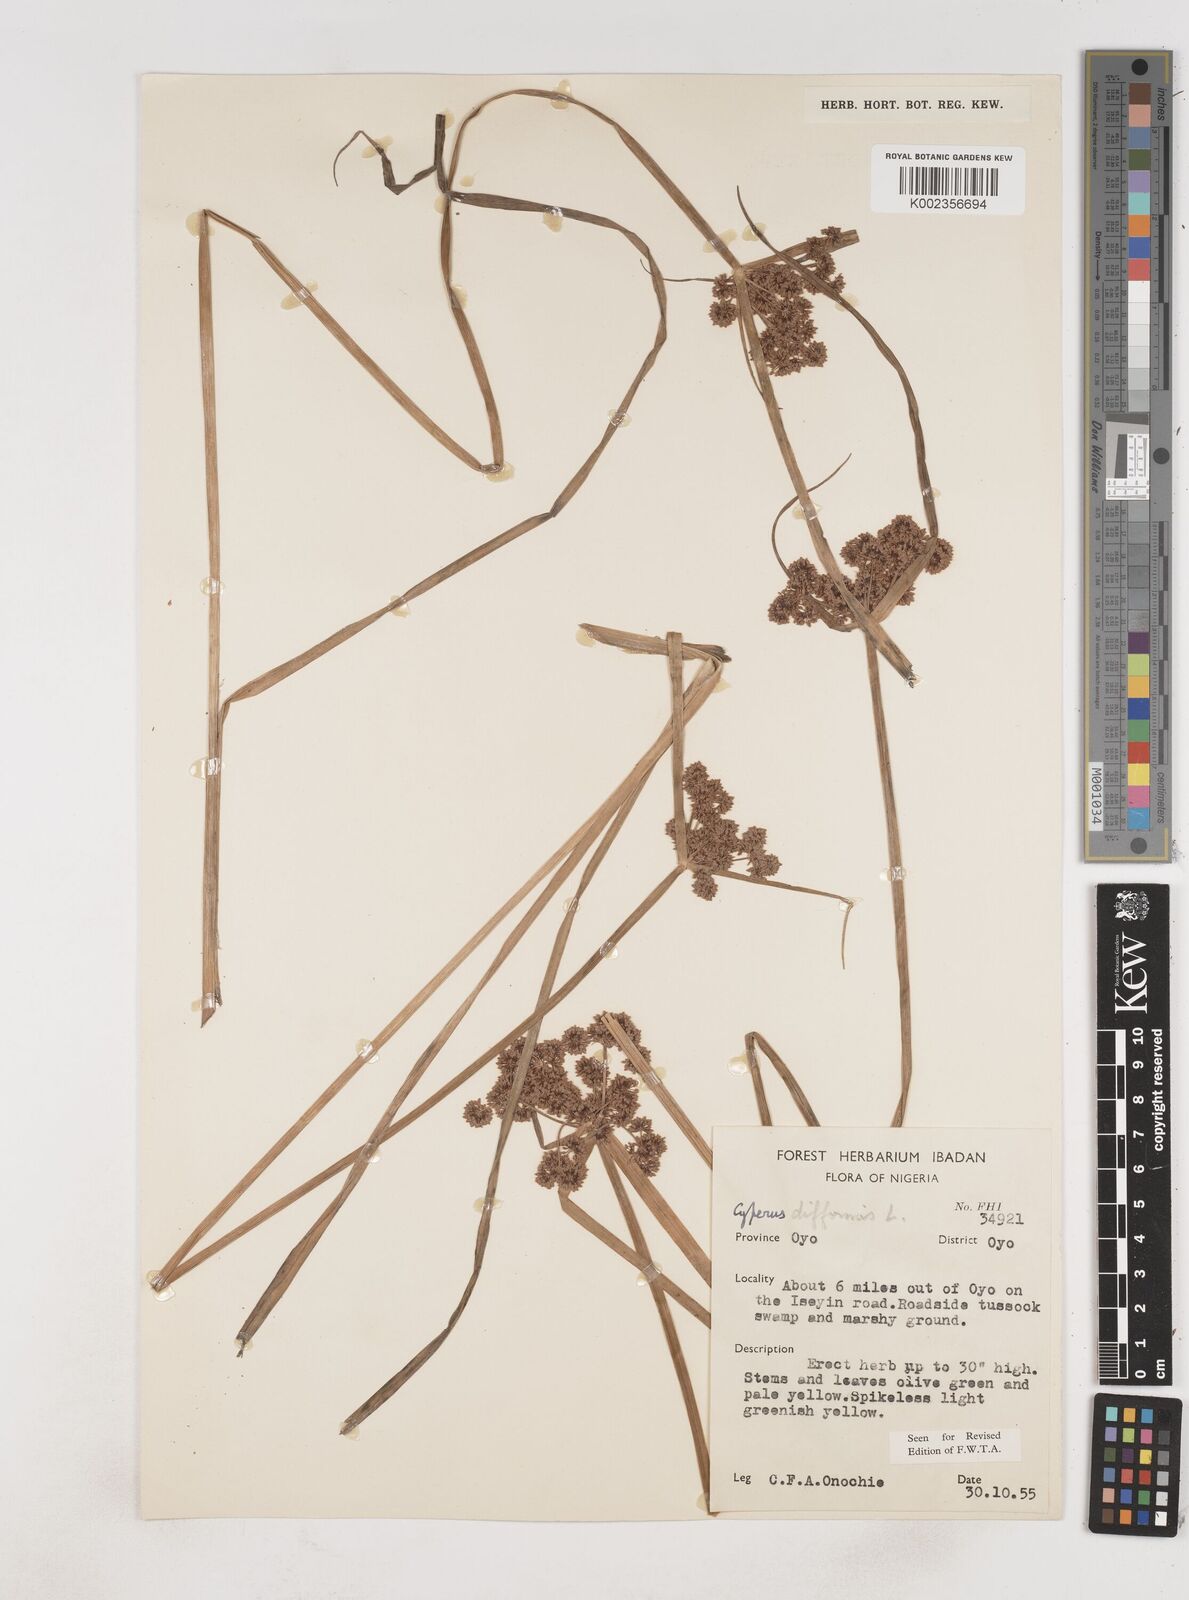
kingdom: Plantae
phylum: Tracheophyta
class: Liliopsida
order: Poales
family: Cyperaceae
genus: Cyperus
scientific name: Cyperus difformis
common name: Variable flatsedge
